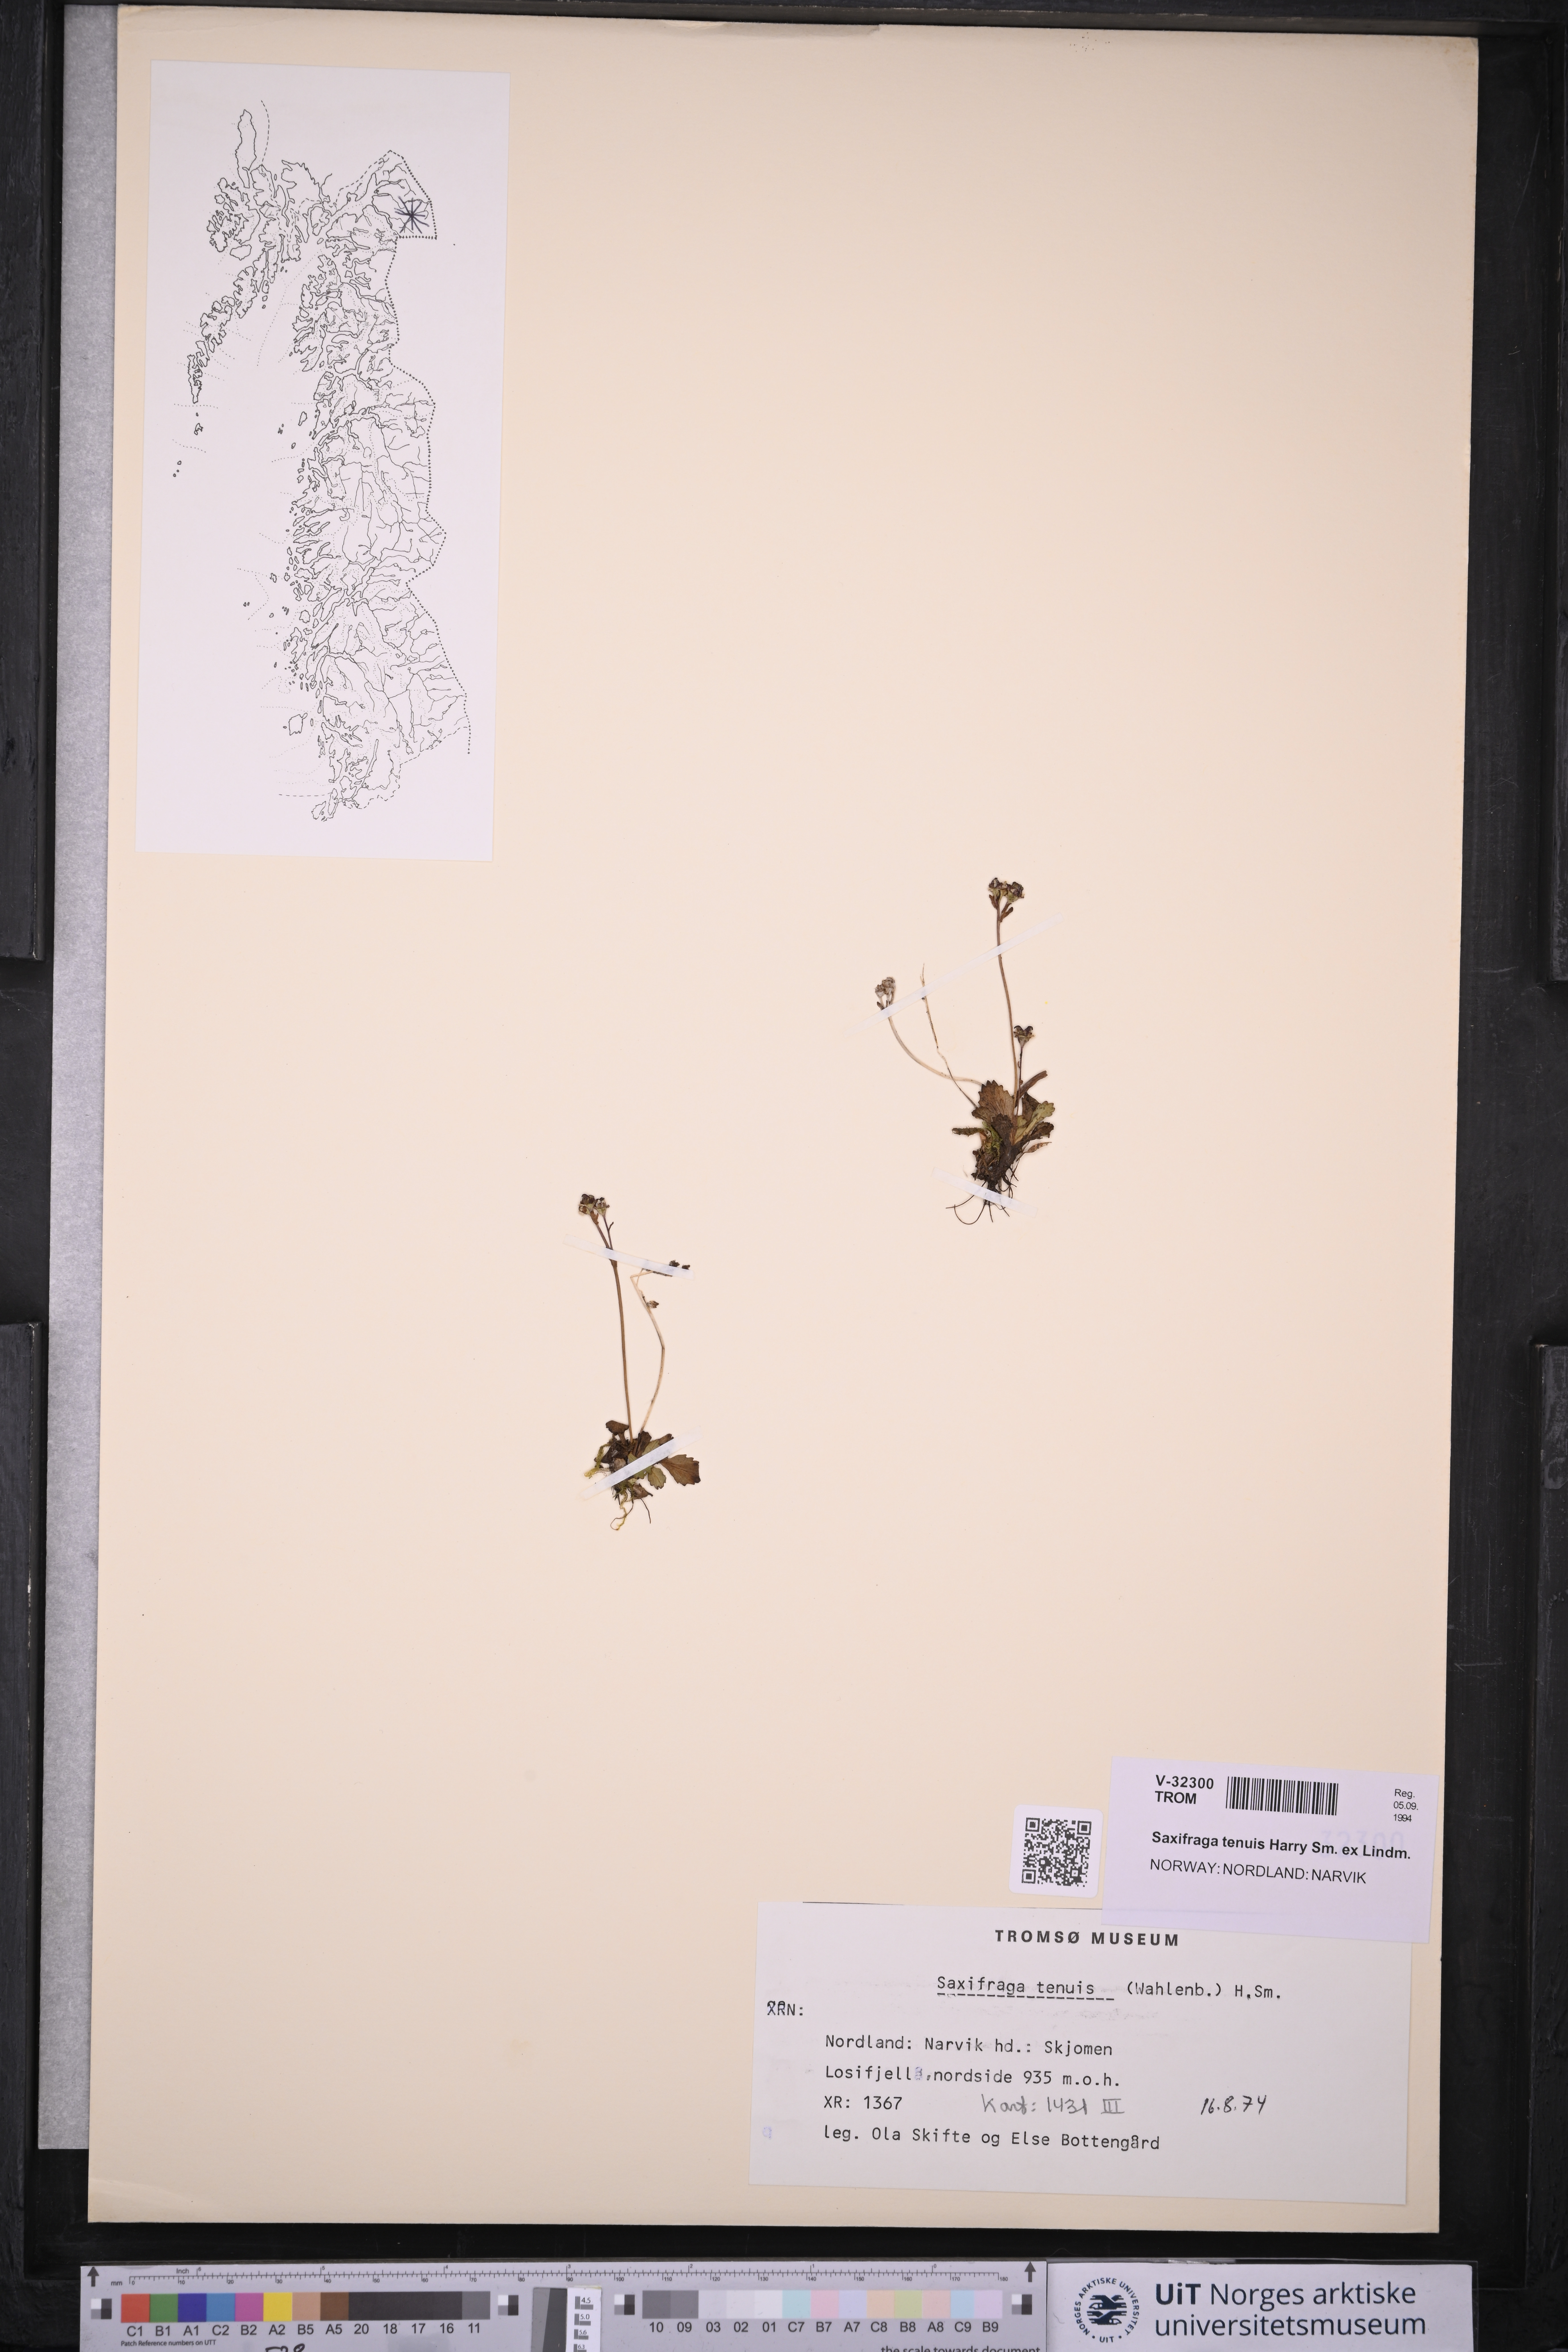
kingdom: Plantae
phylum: Tracheophyta
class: Magnoliopsida
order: Saxifragales
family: Saxifragaceae
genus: Micranthes
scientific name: Micranthes tenuis
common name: Ottertail pass saxifrage
